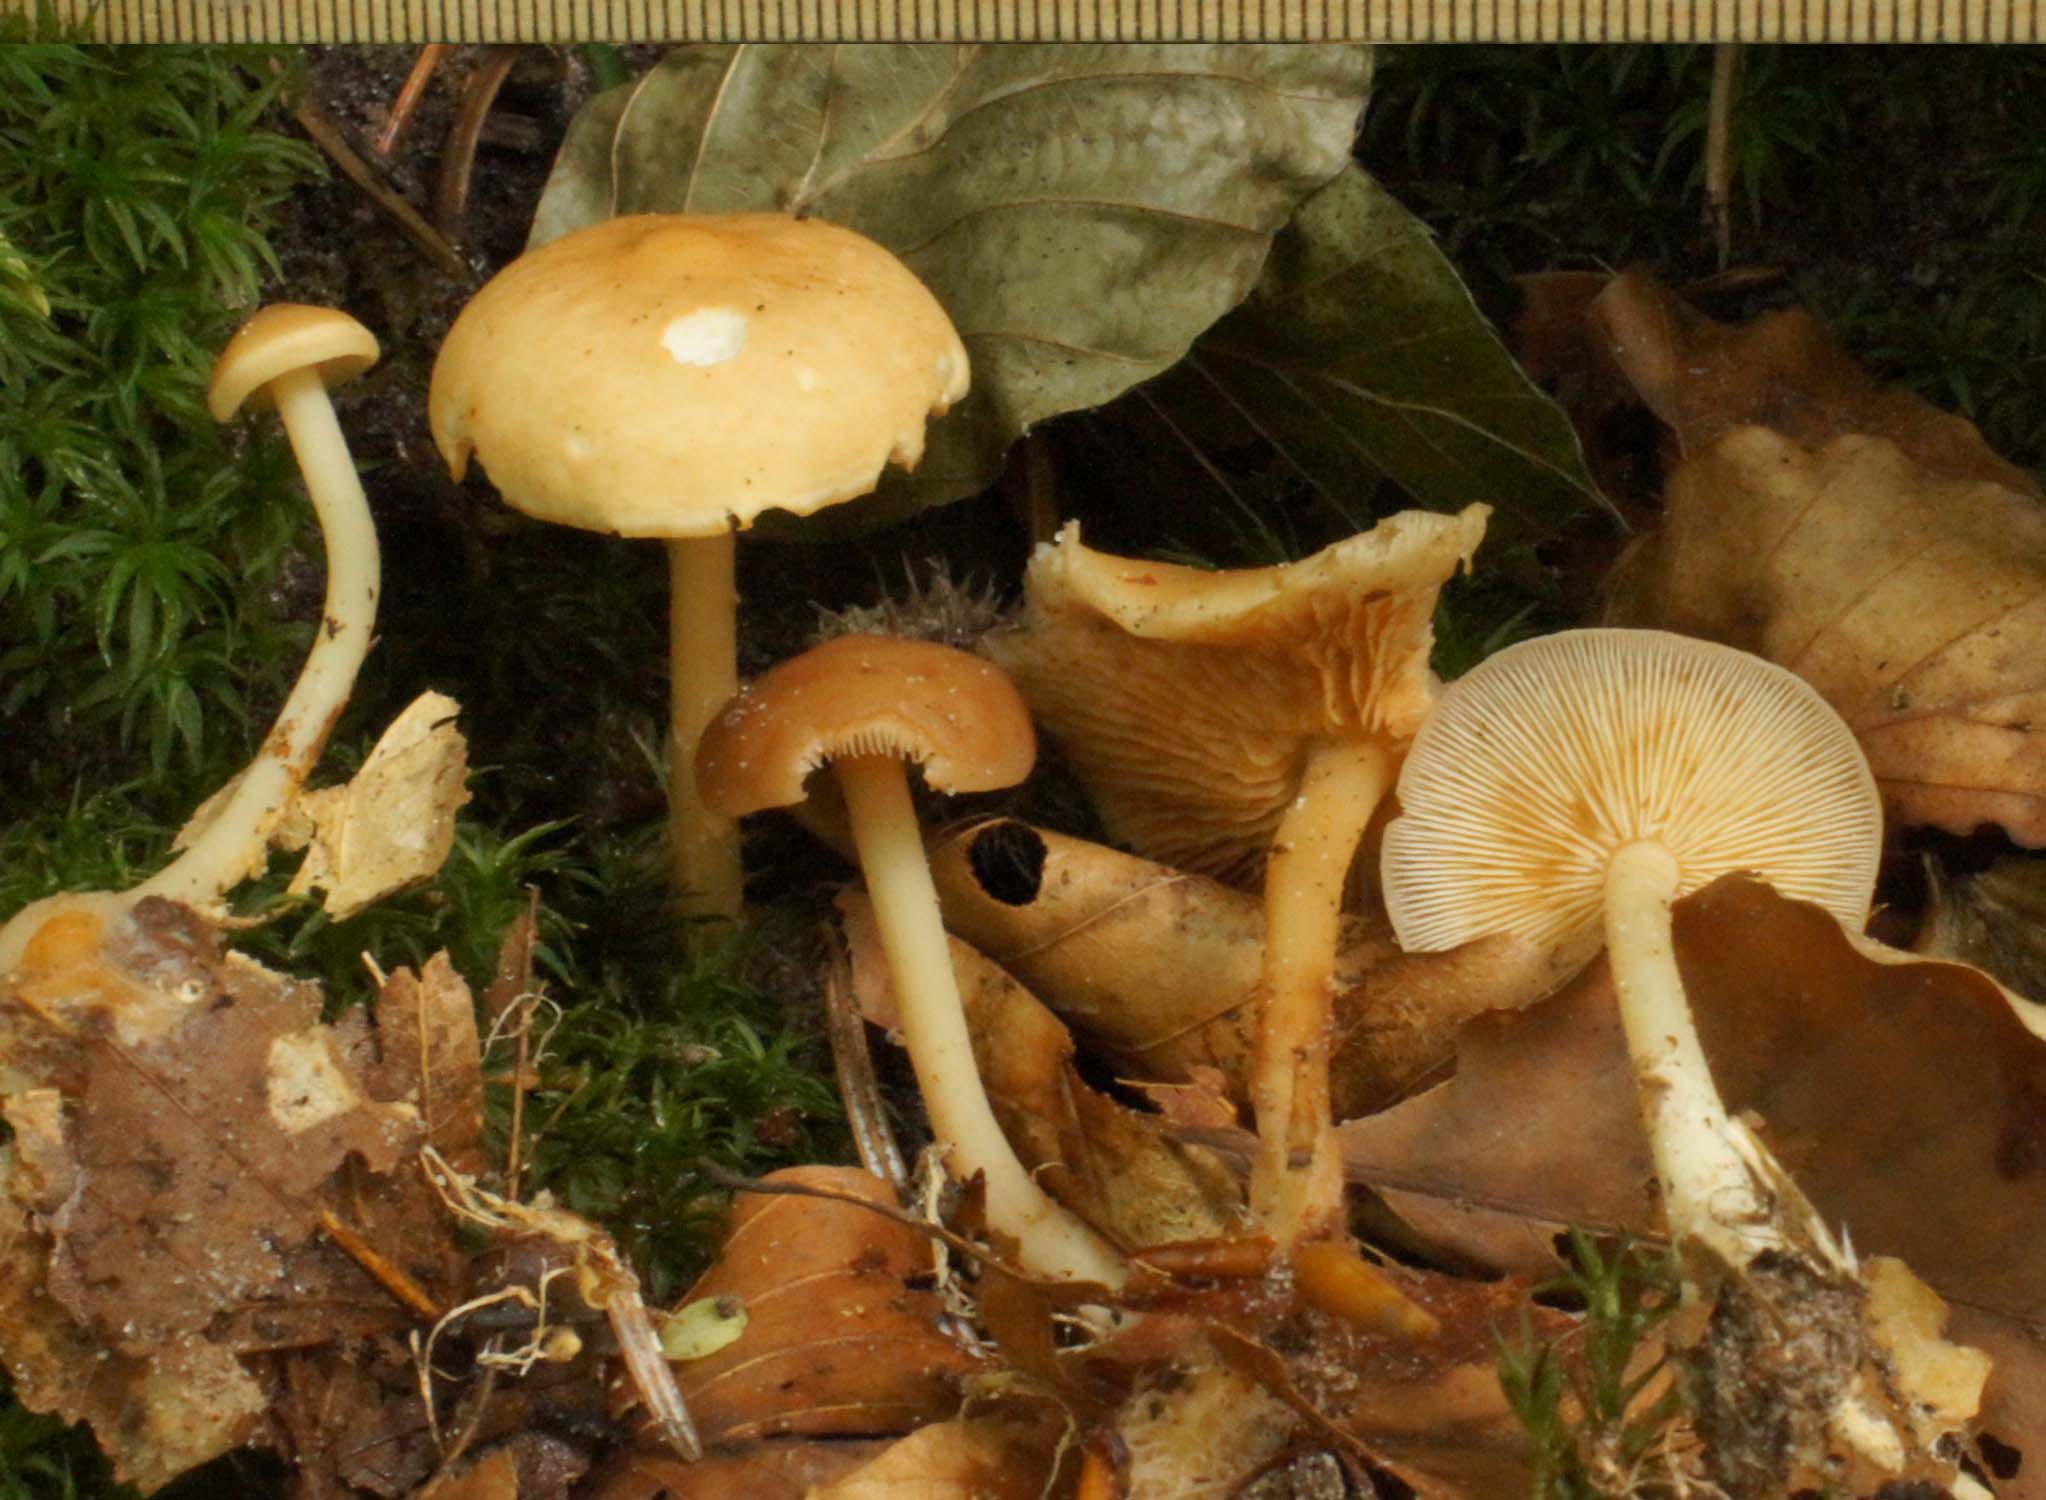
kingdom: Fungi
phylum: Basidiomycota
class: Agaricomycetes
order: Agaricales
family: Omphalotaceae
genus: Gymnopus
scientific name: Gymnopus dryophilus
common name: løv-fladhat
